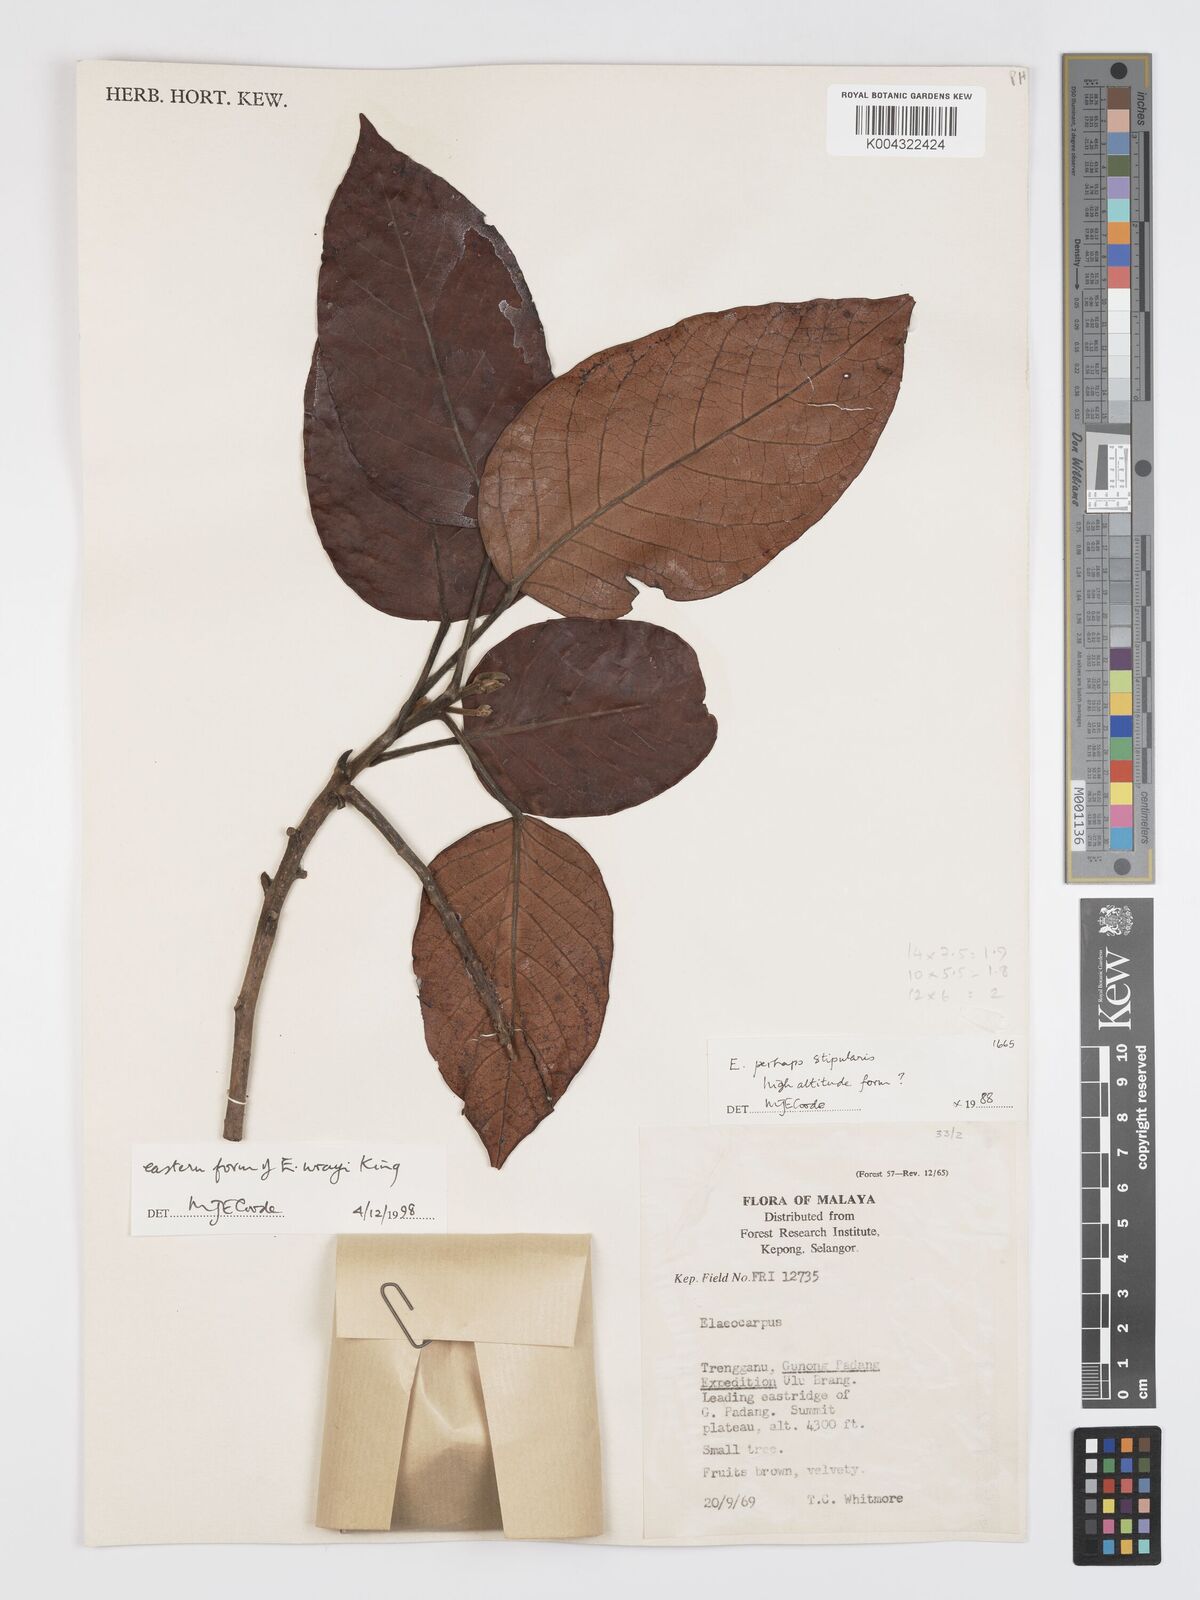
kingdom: Plantae
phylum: Tracheophyta
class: Magnoliopsida
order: Oxalidales
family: Elaeocarpaceae
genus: Elaeocarpus
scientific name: Elaeocarpus nitidus
